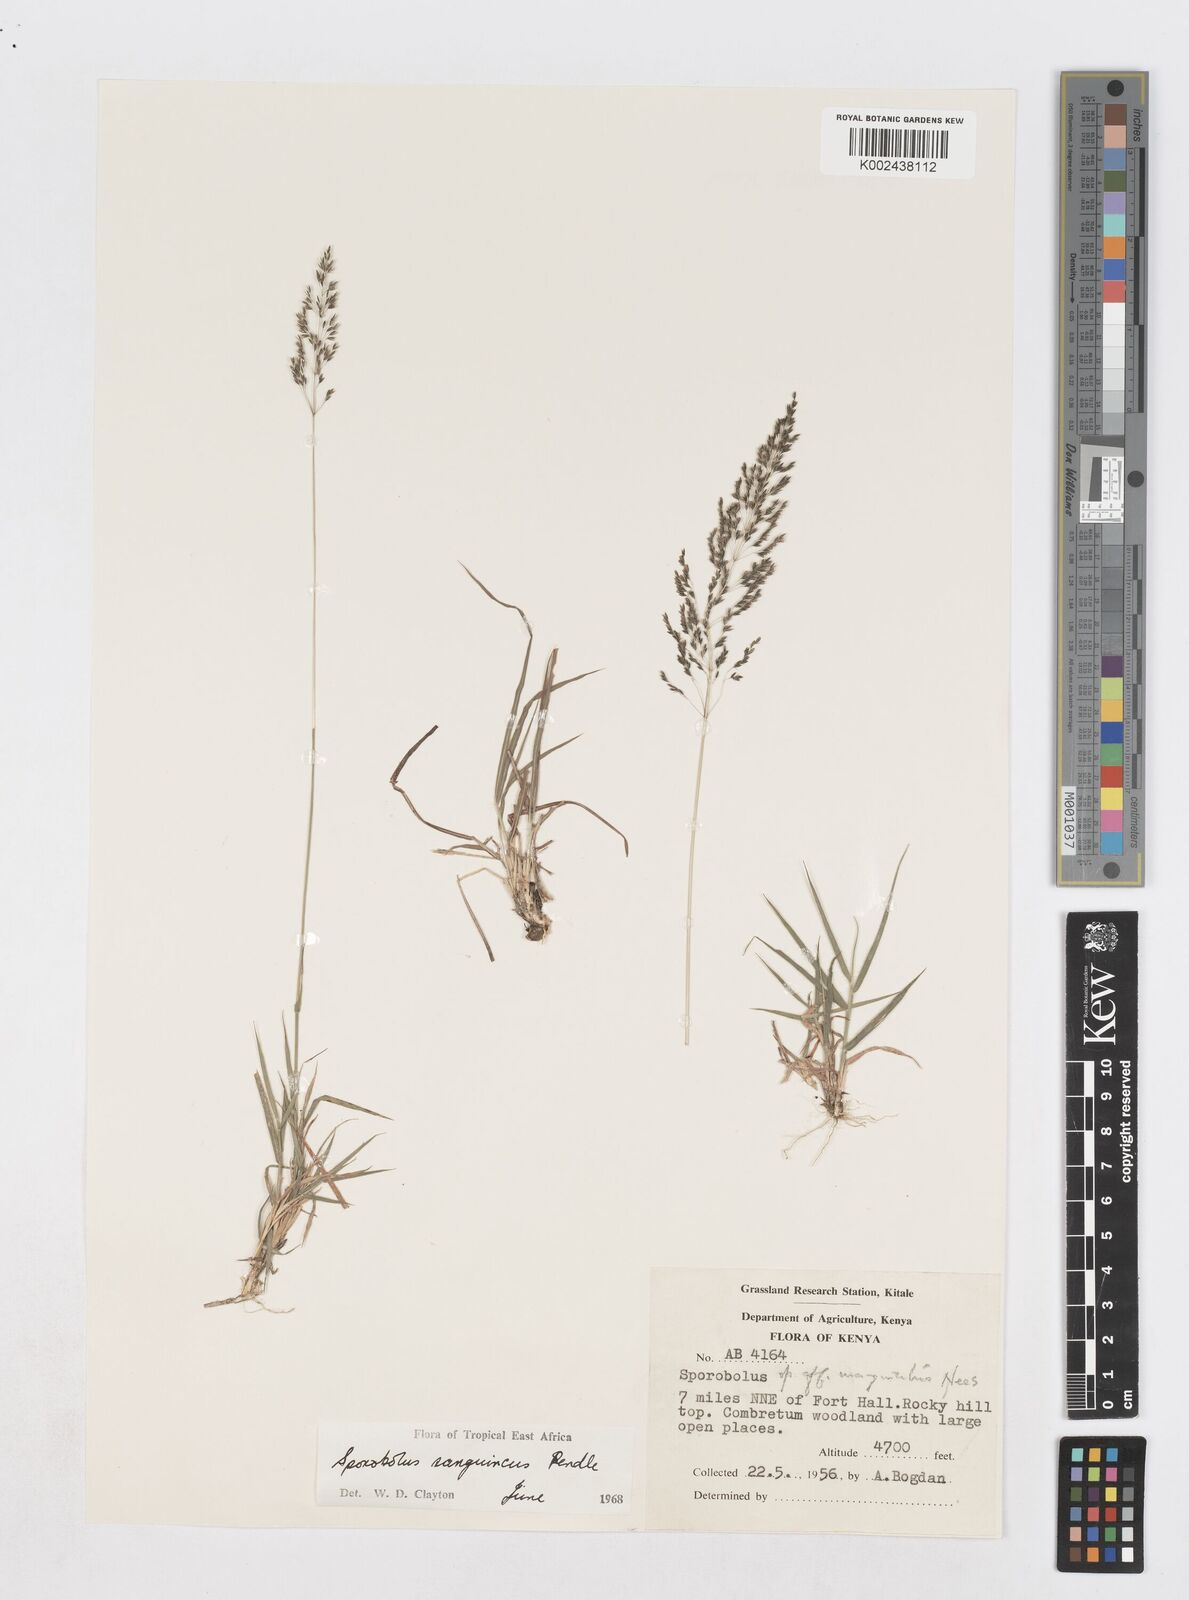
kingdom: Plantae
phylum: Tracheophyta
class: Liliopsida
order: Poales
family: Poaceae
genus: Sporobolus
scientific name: Sporobolus sanguineus
